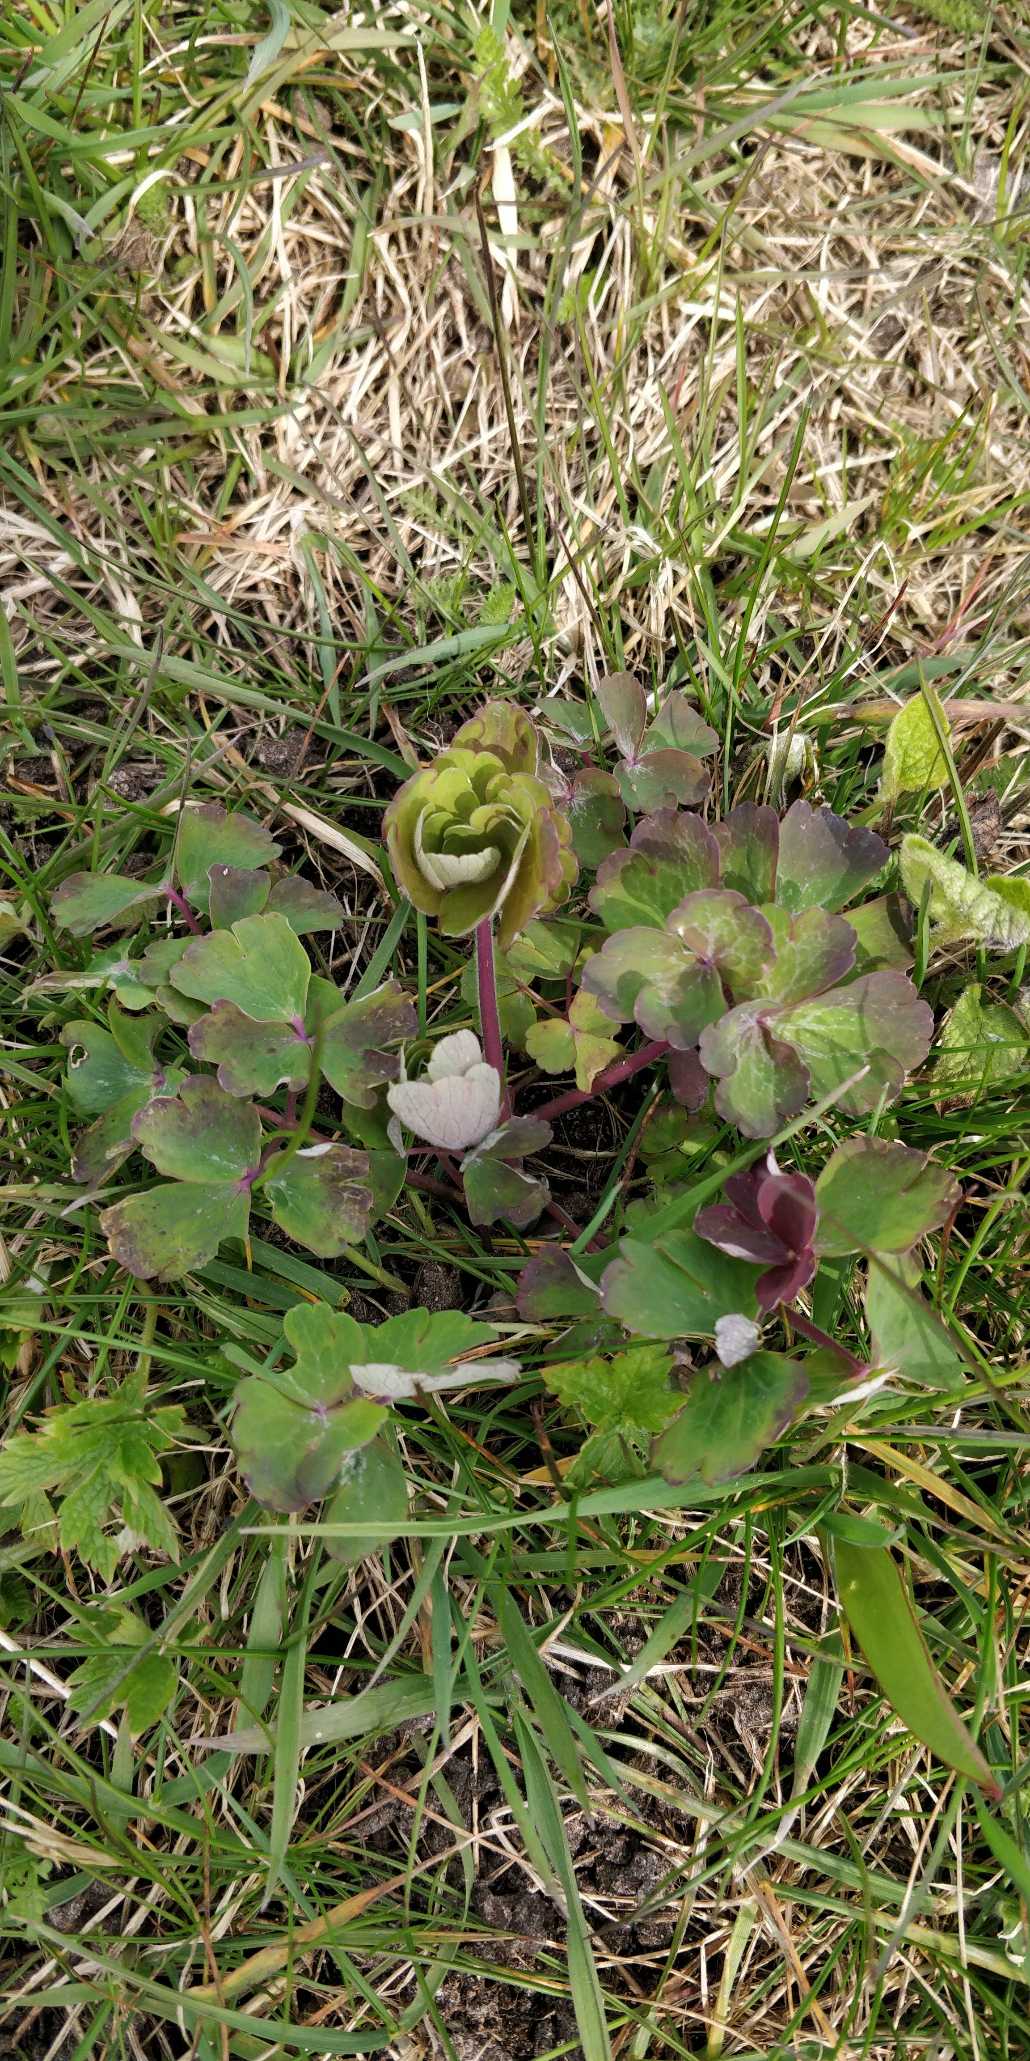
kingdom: Plantae
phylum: Tracheophyta
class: Magnoliopsida
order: Ranunculales
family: Ranunculaceae
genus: Aquilegia
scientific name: Aquilegia vulgaris
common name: Akeleje
